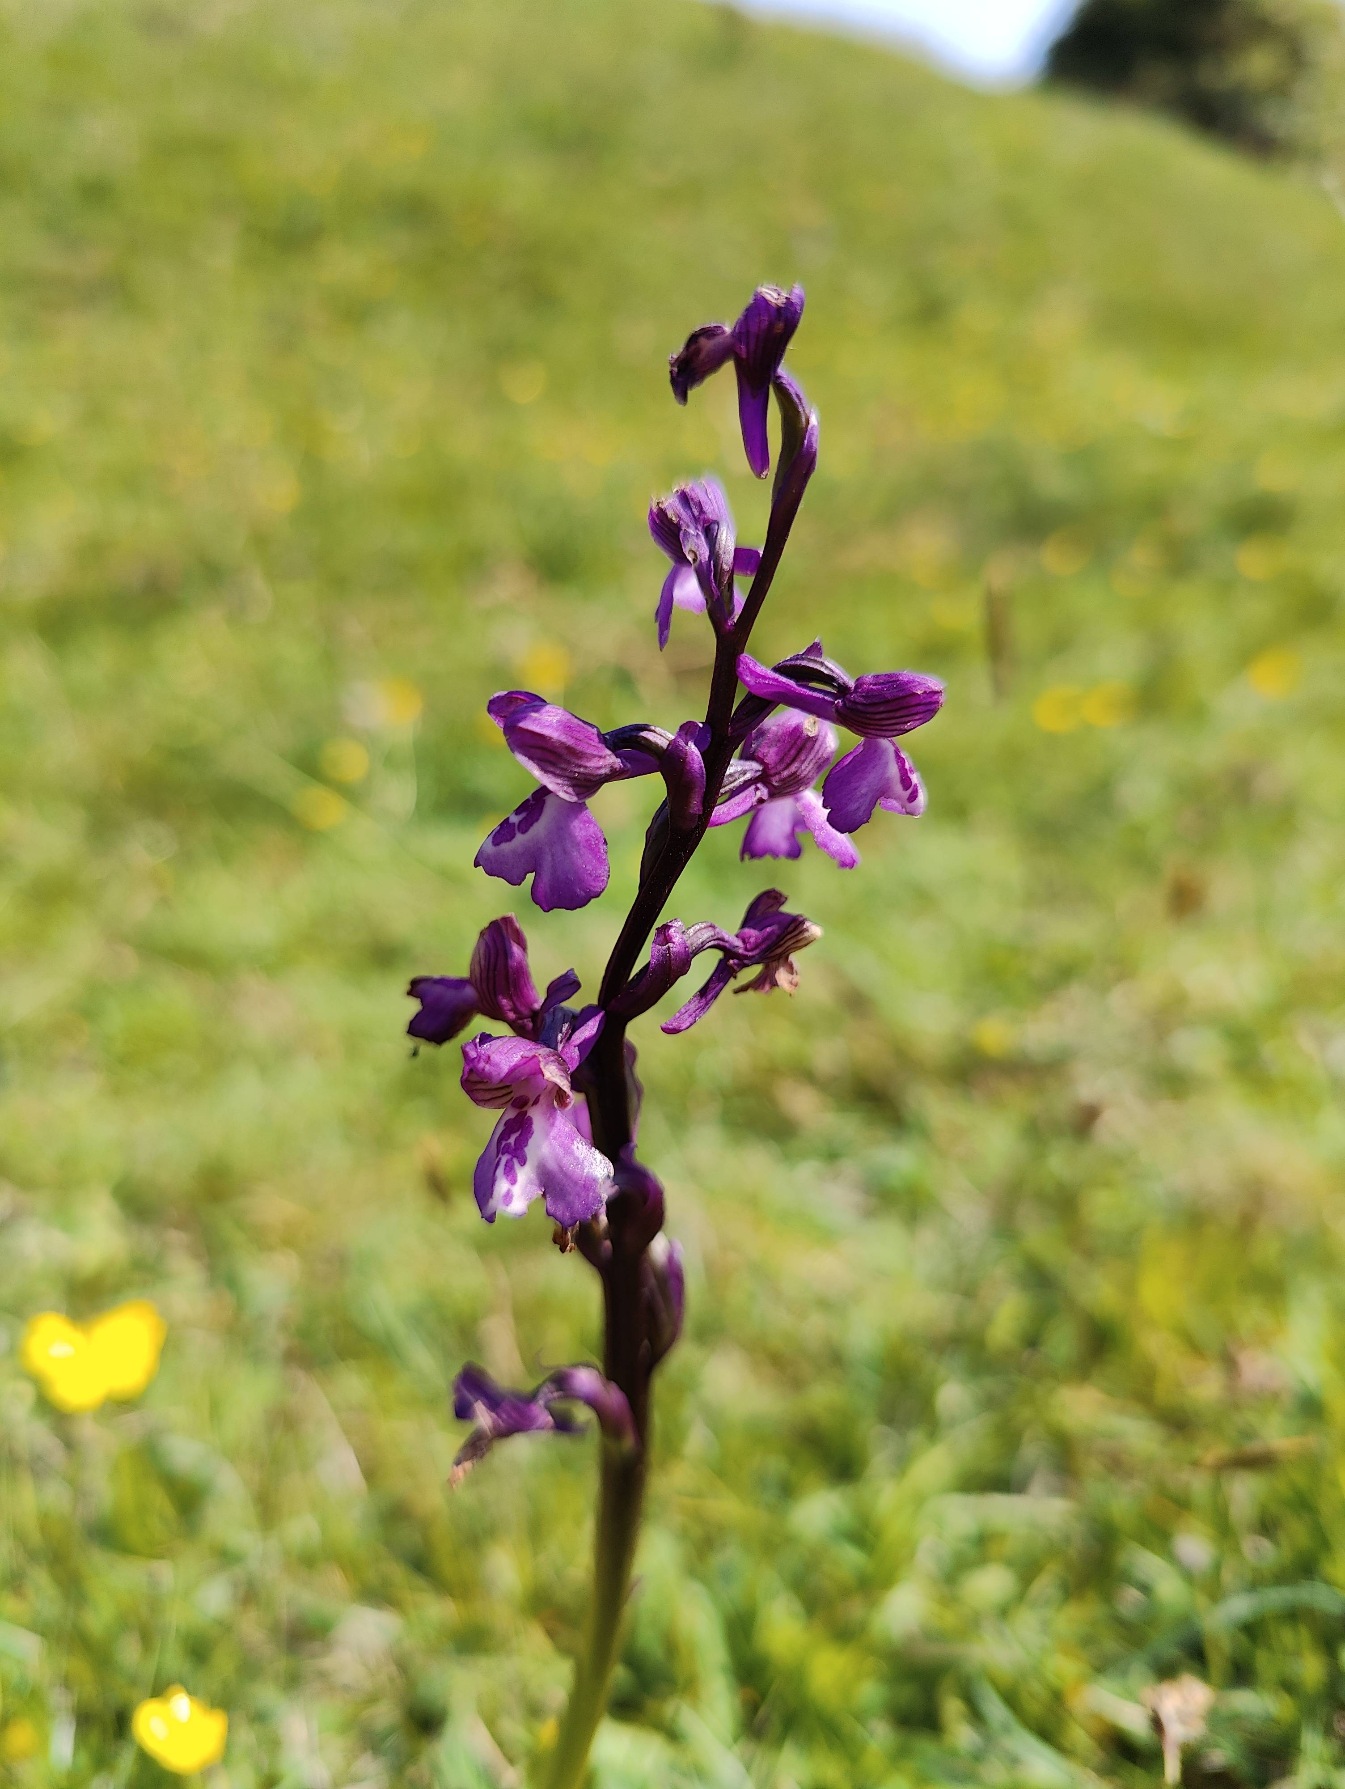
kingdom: Plantae
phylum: Tracheophyta
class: Liliopsida
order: Asparagales
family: Orchidaceae
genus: Anacamptis
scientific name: Anacamptis morio
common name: Salepgøgeurt
